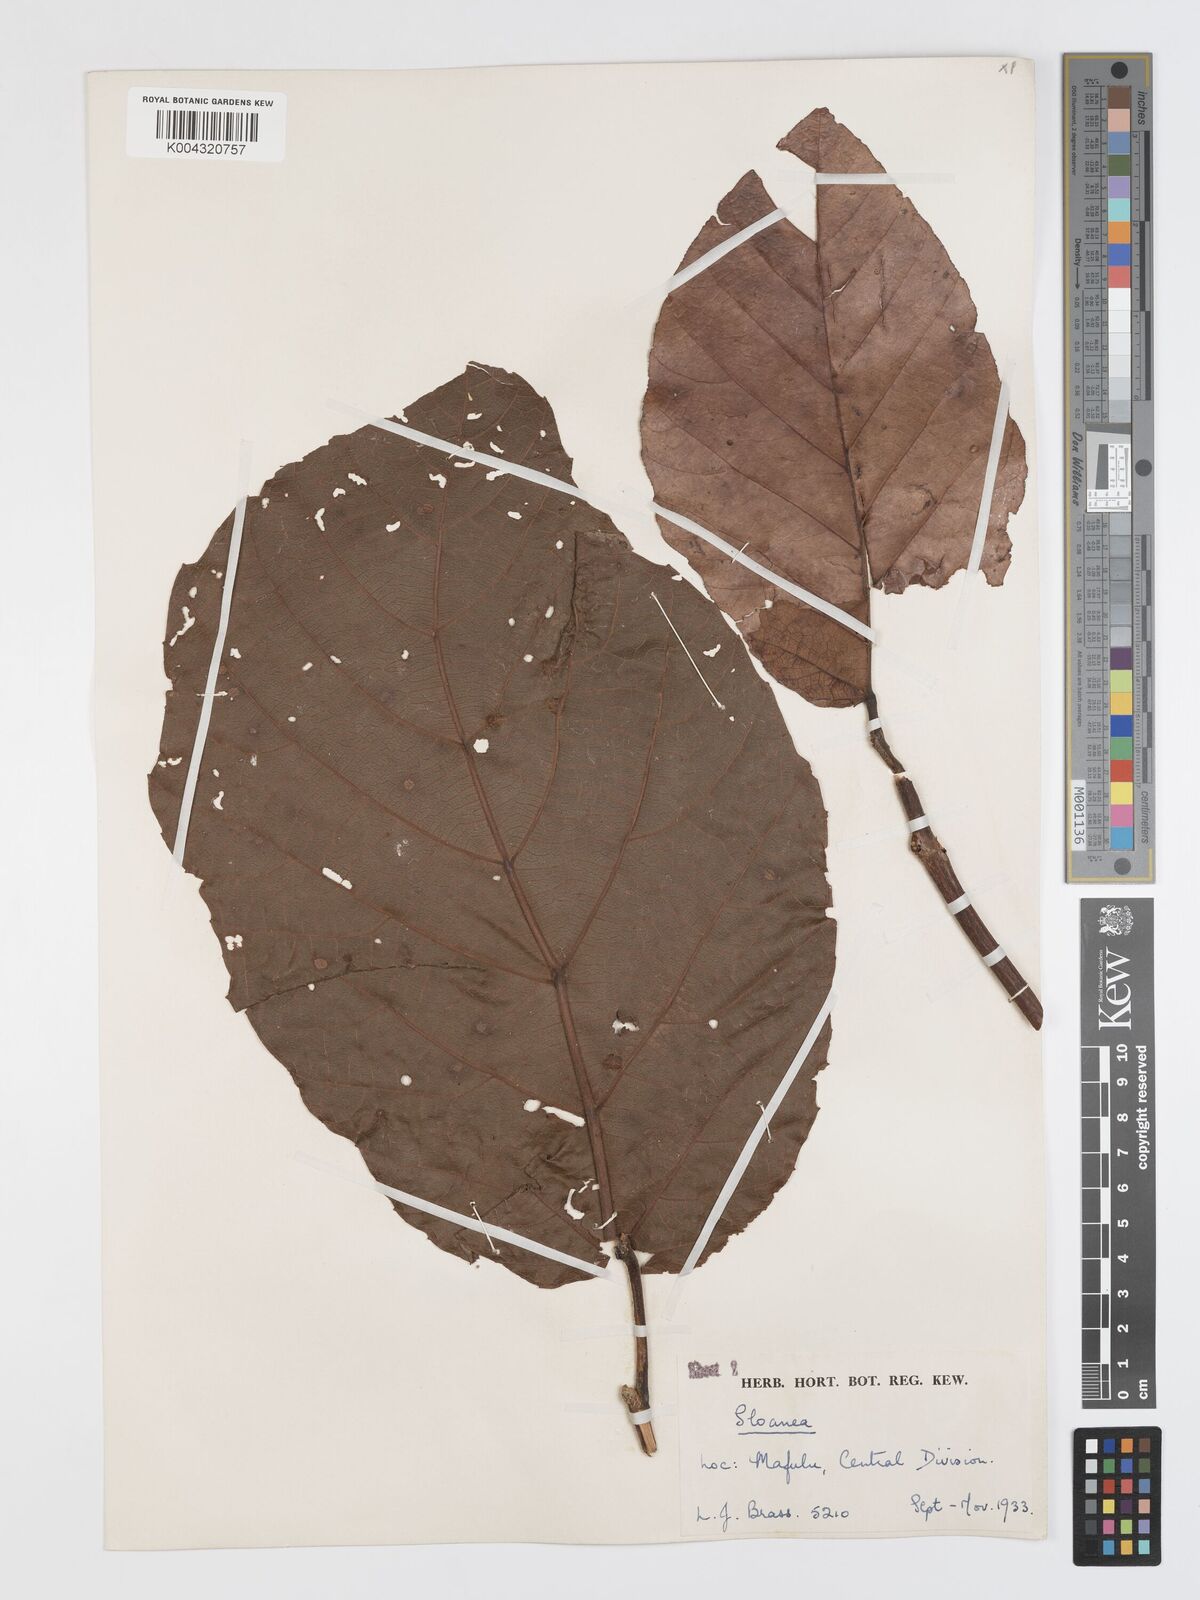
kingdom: Plantae
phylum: Tracheophyta
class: Magnoliopsida
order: Oxalidales
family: Elaeocarpaceae
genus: Sloanea
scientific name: Sloanea sogerensis
